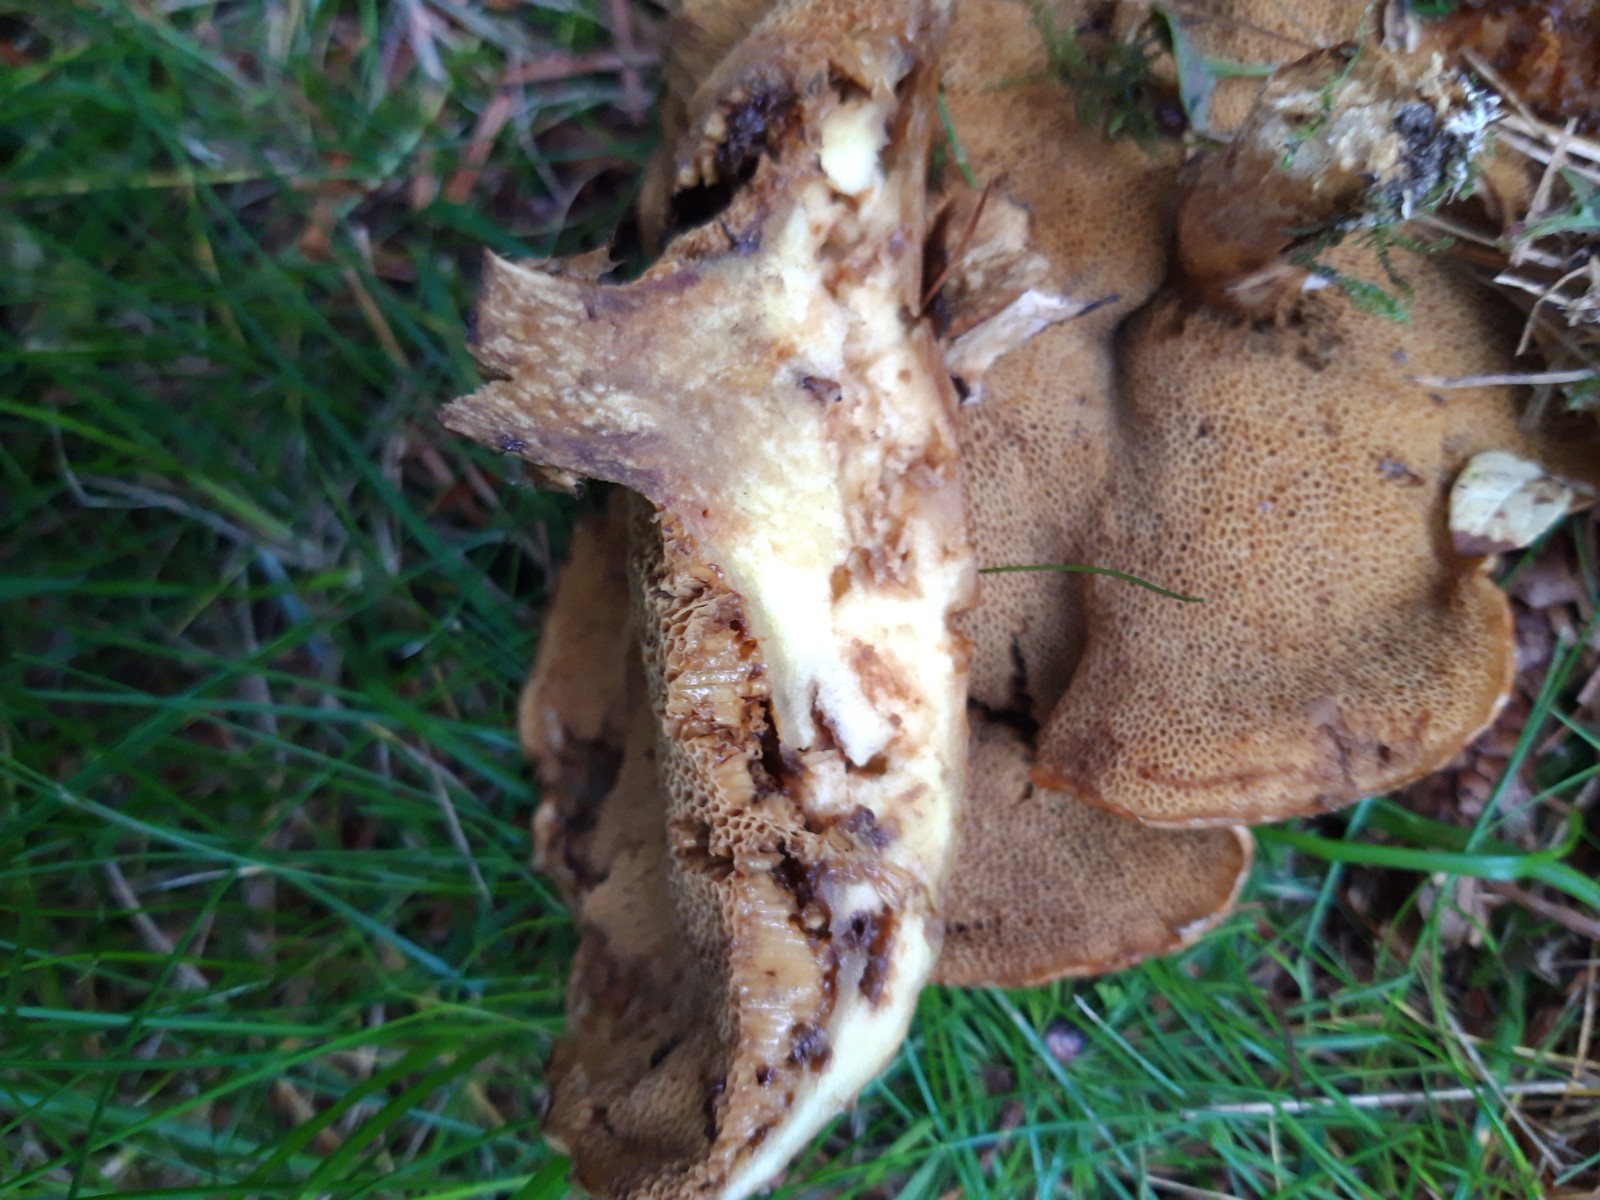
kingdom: Fungi
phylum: Basidiomycota
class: Agaricomycetes
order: Boletales
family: Suillaceae
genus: Suillus
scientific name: Suillus
